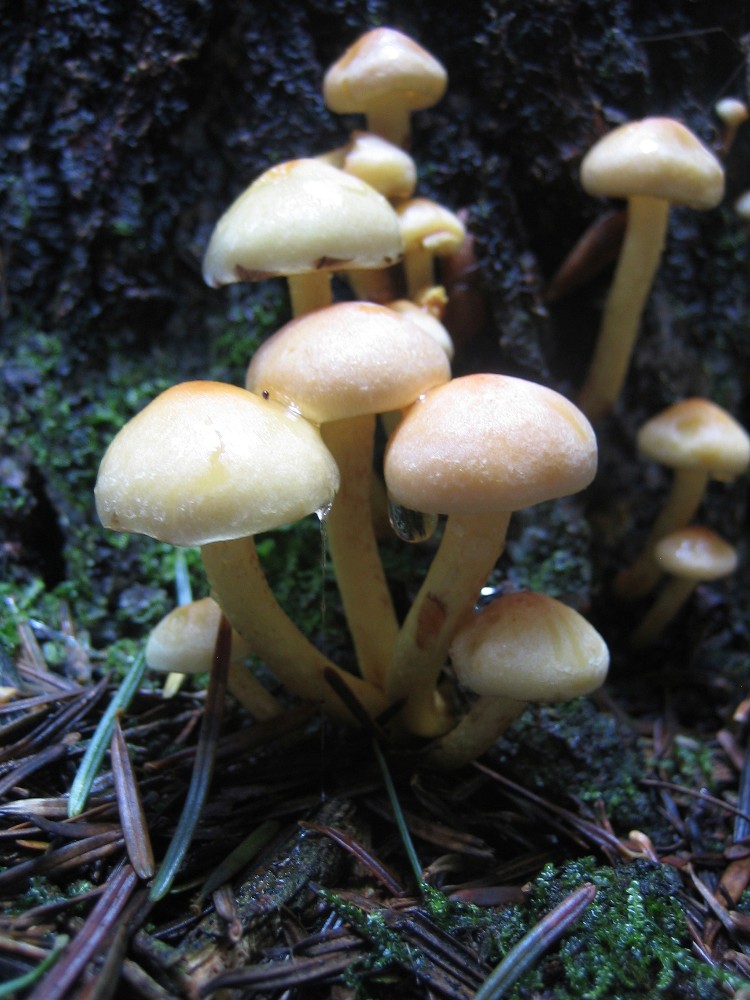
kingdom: Fungi
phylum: Basidiomycota
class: Agaricomycetes
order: Agaricales
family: Strophariaceae
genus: Hypholoma
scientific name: Hypholoma fasciculare
